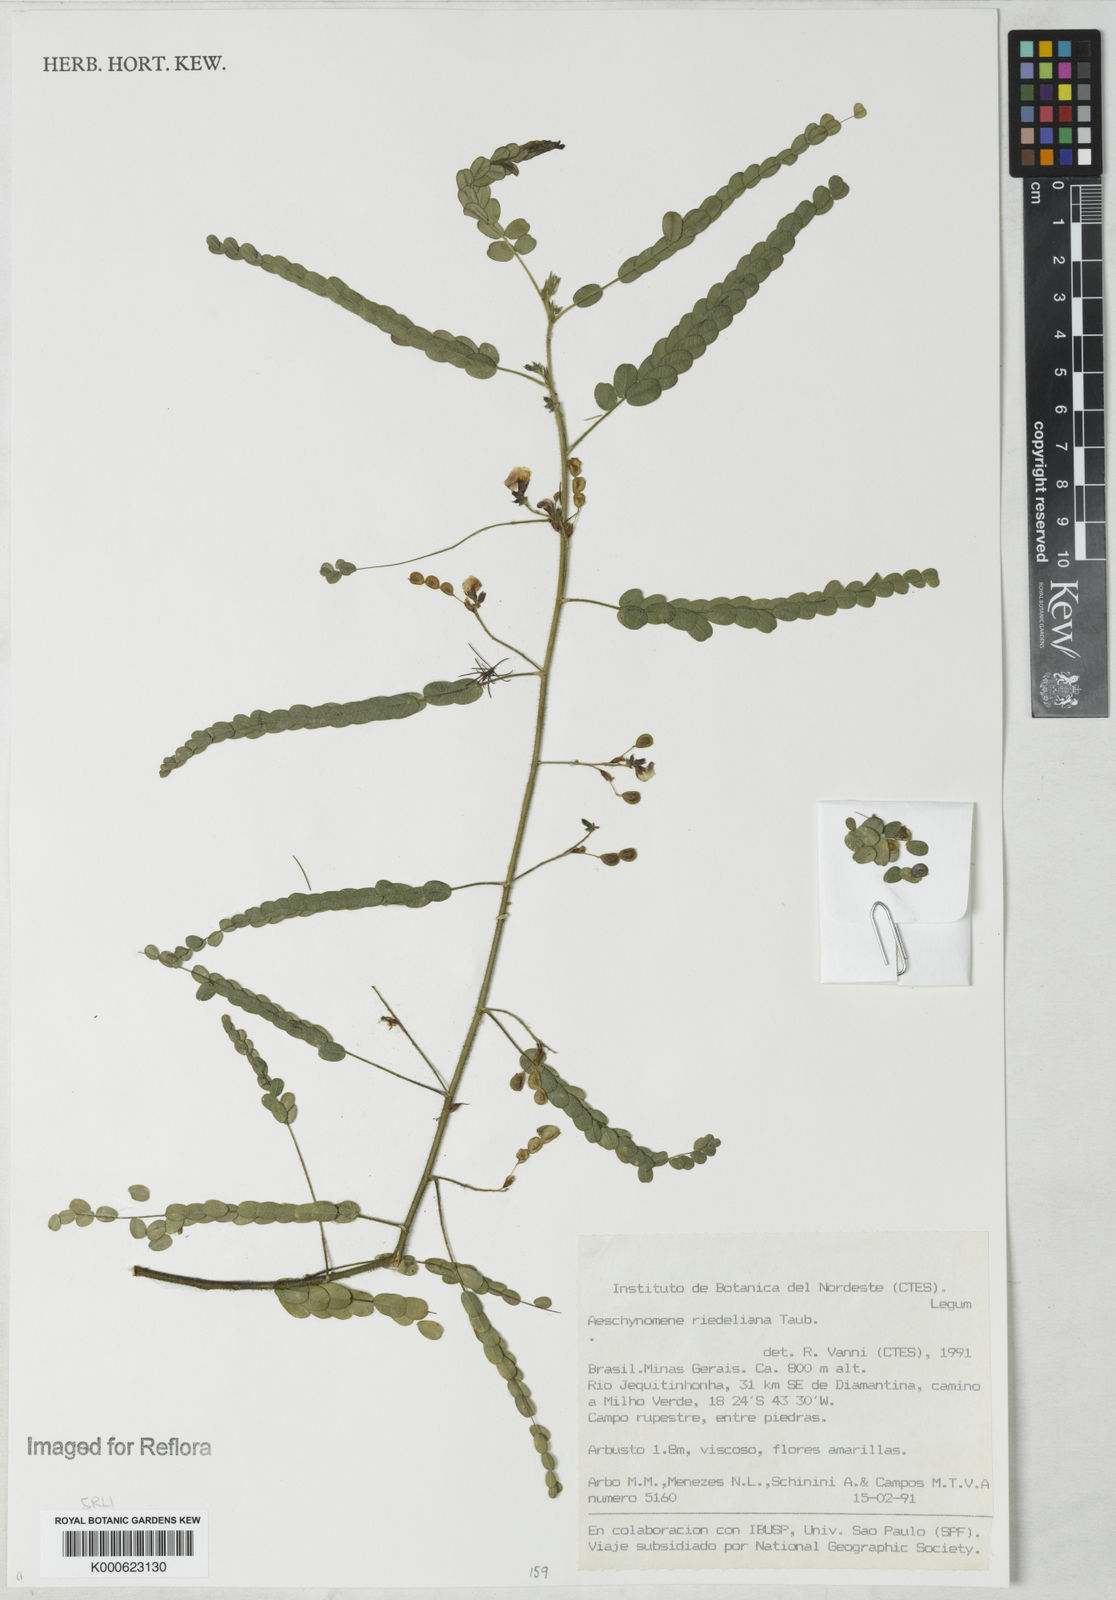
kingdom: Plantae
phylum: Tracheophyta
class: Magnoliopsida
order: Fabales
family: Fabaceae
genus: Ctenodon
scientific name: Ctenodon riedelianus
